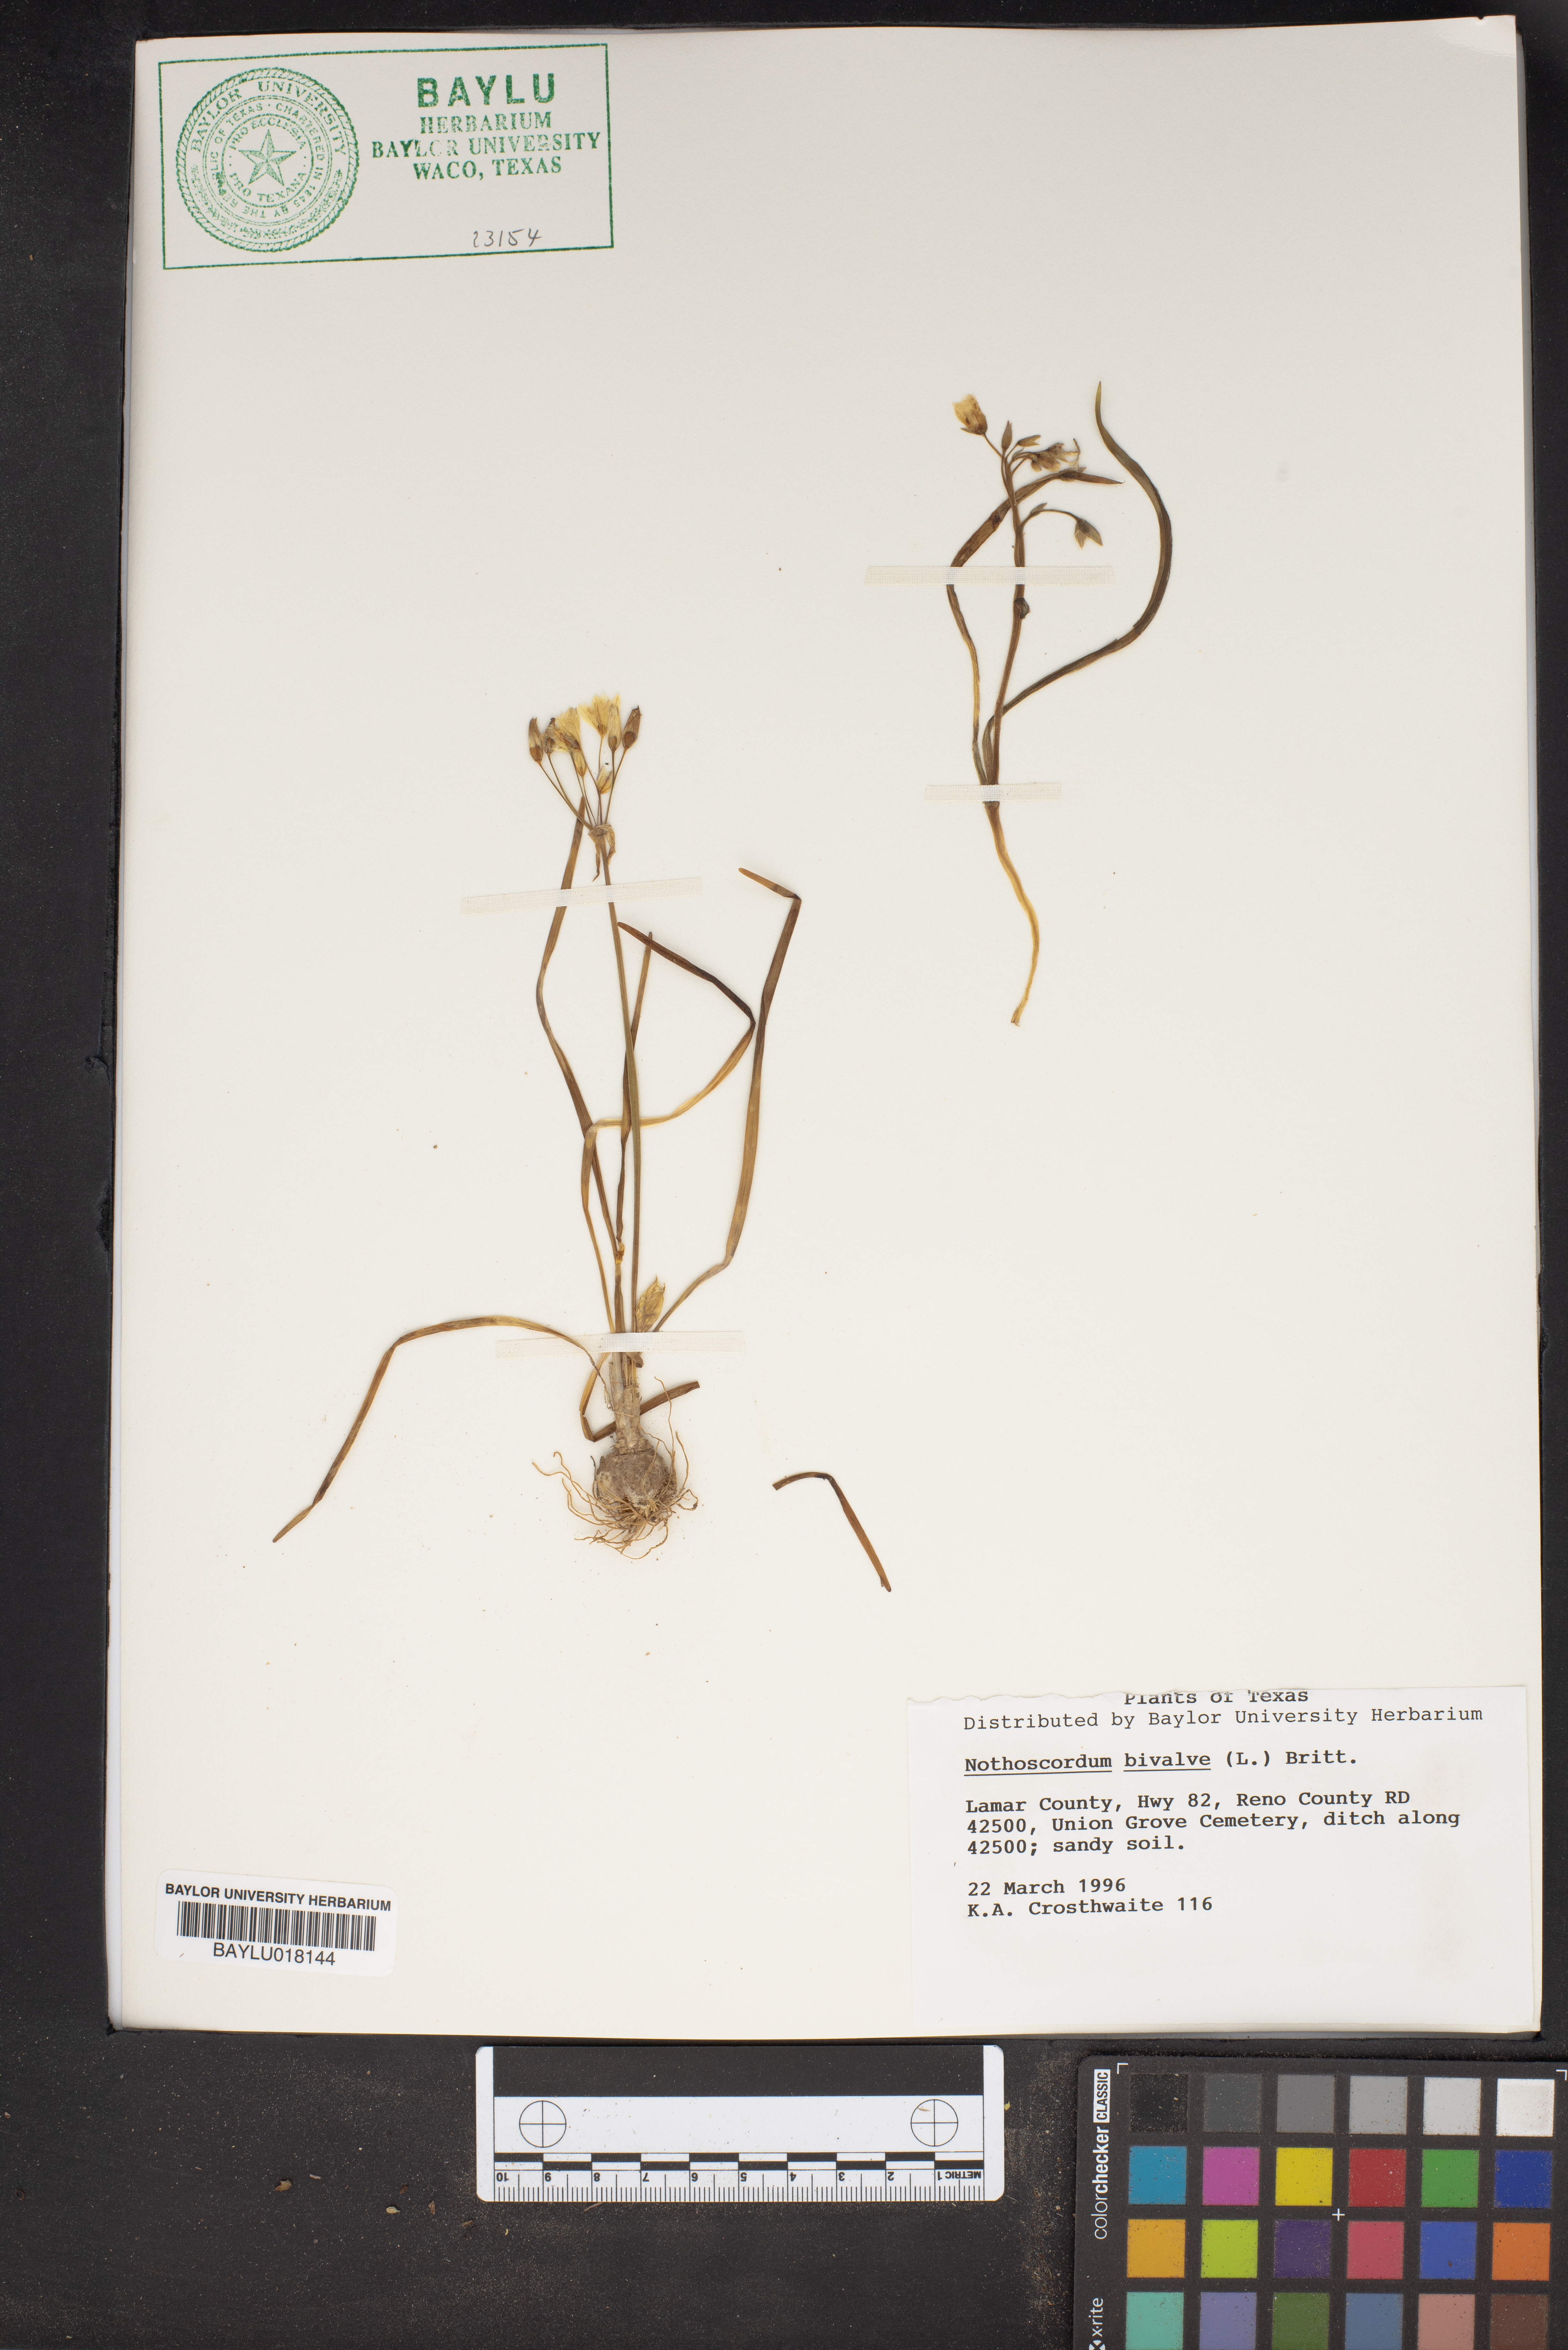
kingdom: Plantae
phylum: Tracheophyta
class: Liliopsida
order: Asparagales
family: Amaryllidaceae
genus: Nothoscordum
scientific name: Nothoscordum bivalve
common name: Crow-poison
